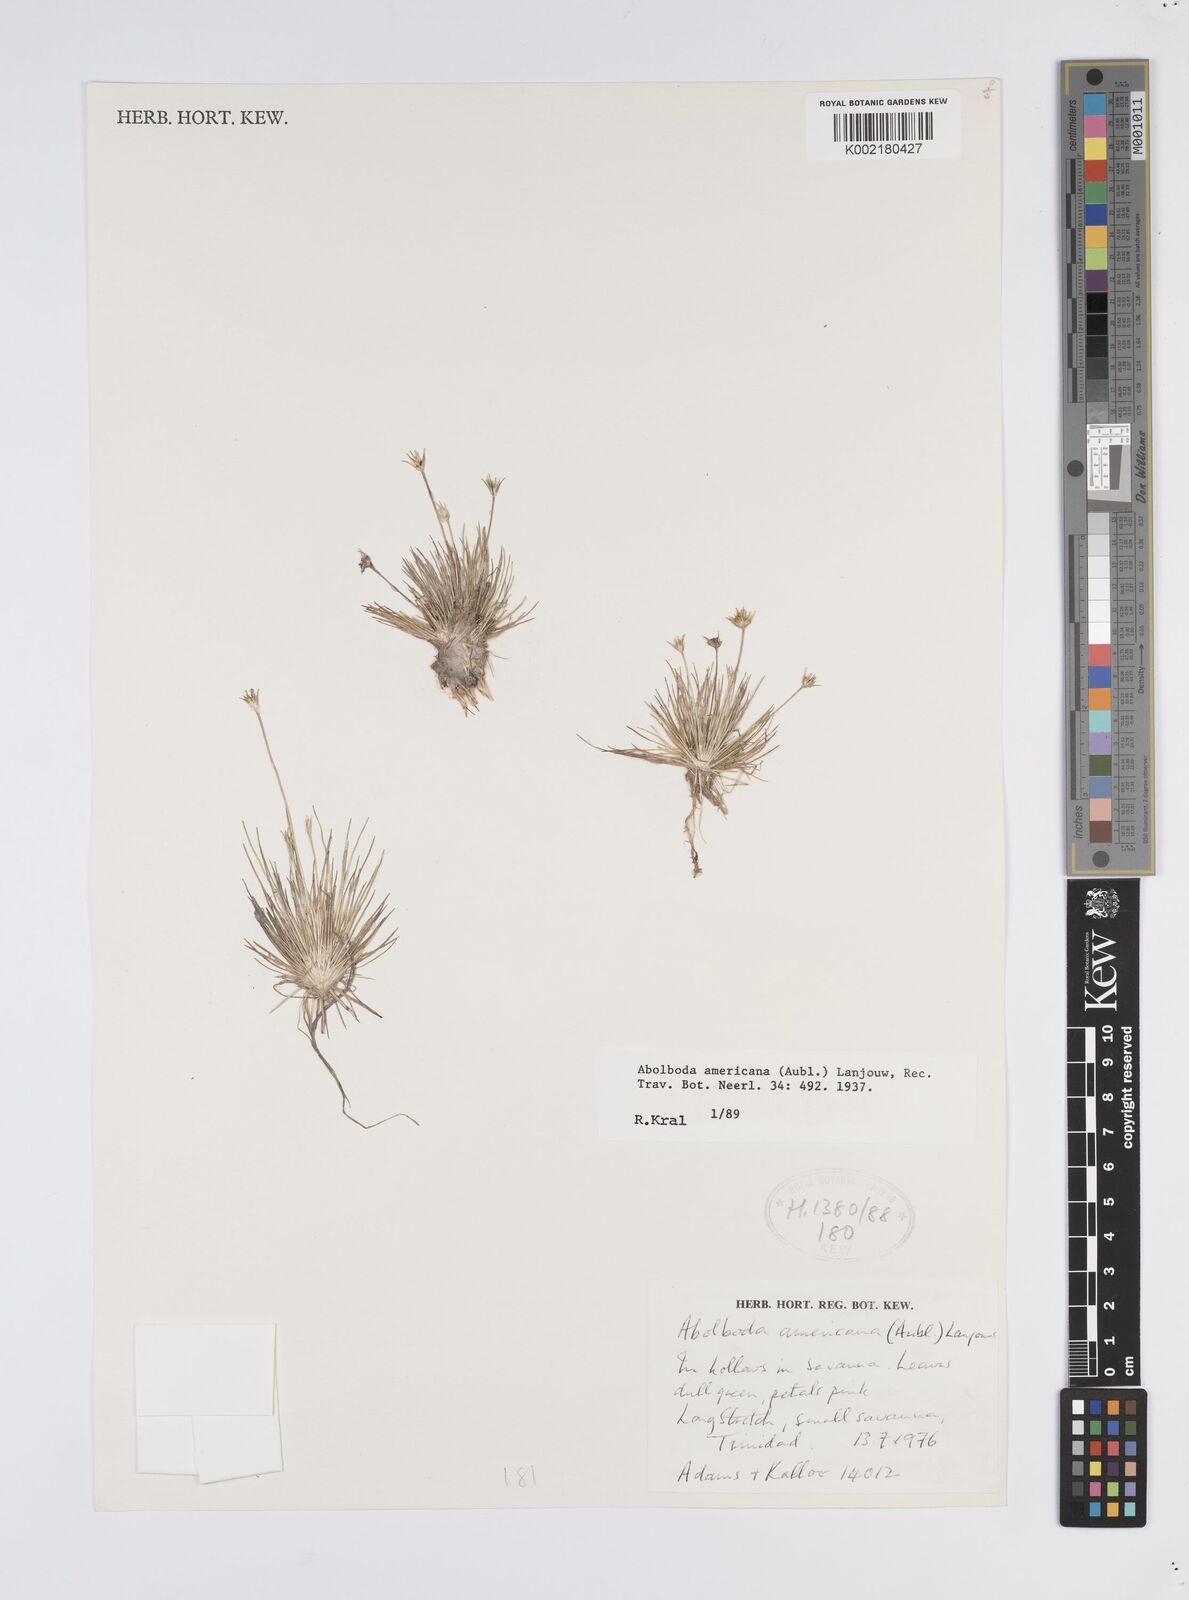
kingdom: Plantae
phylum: Tracheophyta
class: Liliopsida
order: Poales
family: Xyridaceae
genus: Abolboda
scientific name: Abolboda americana
